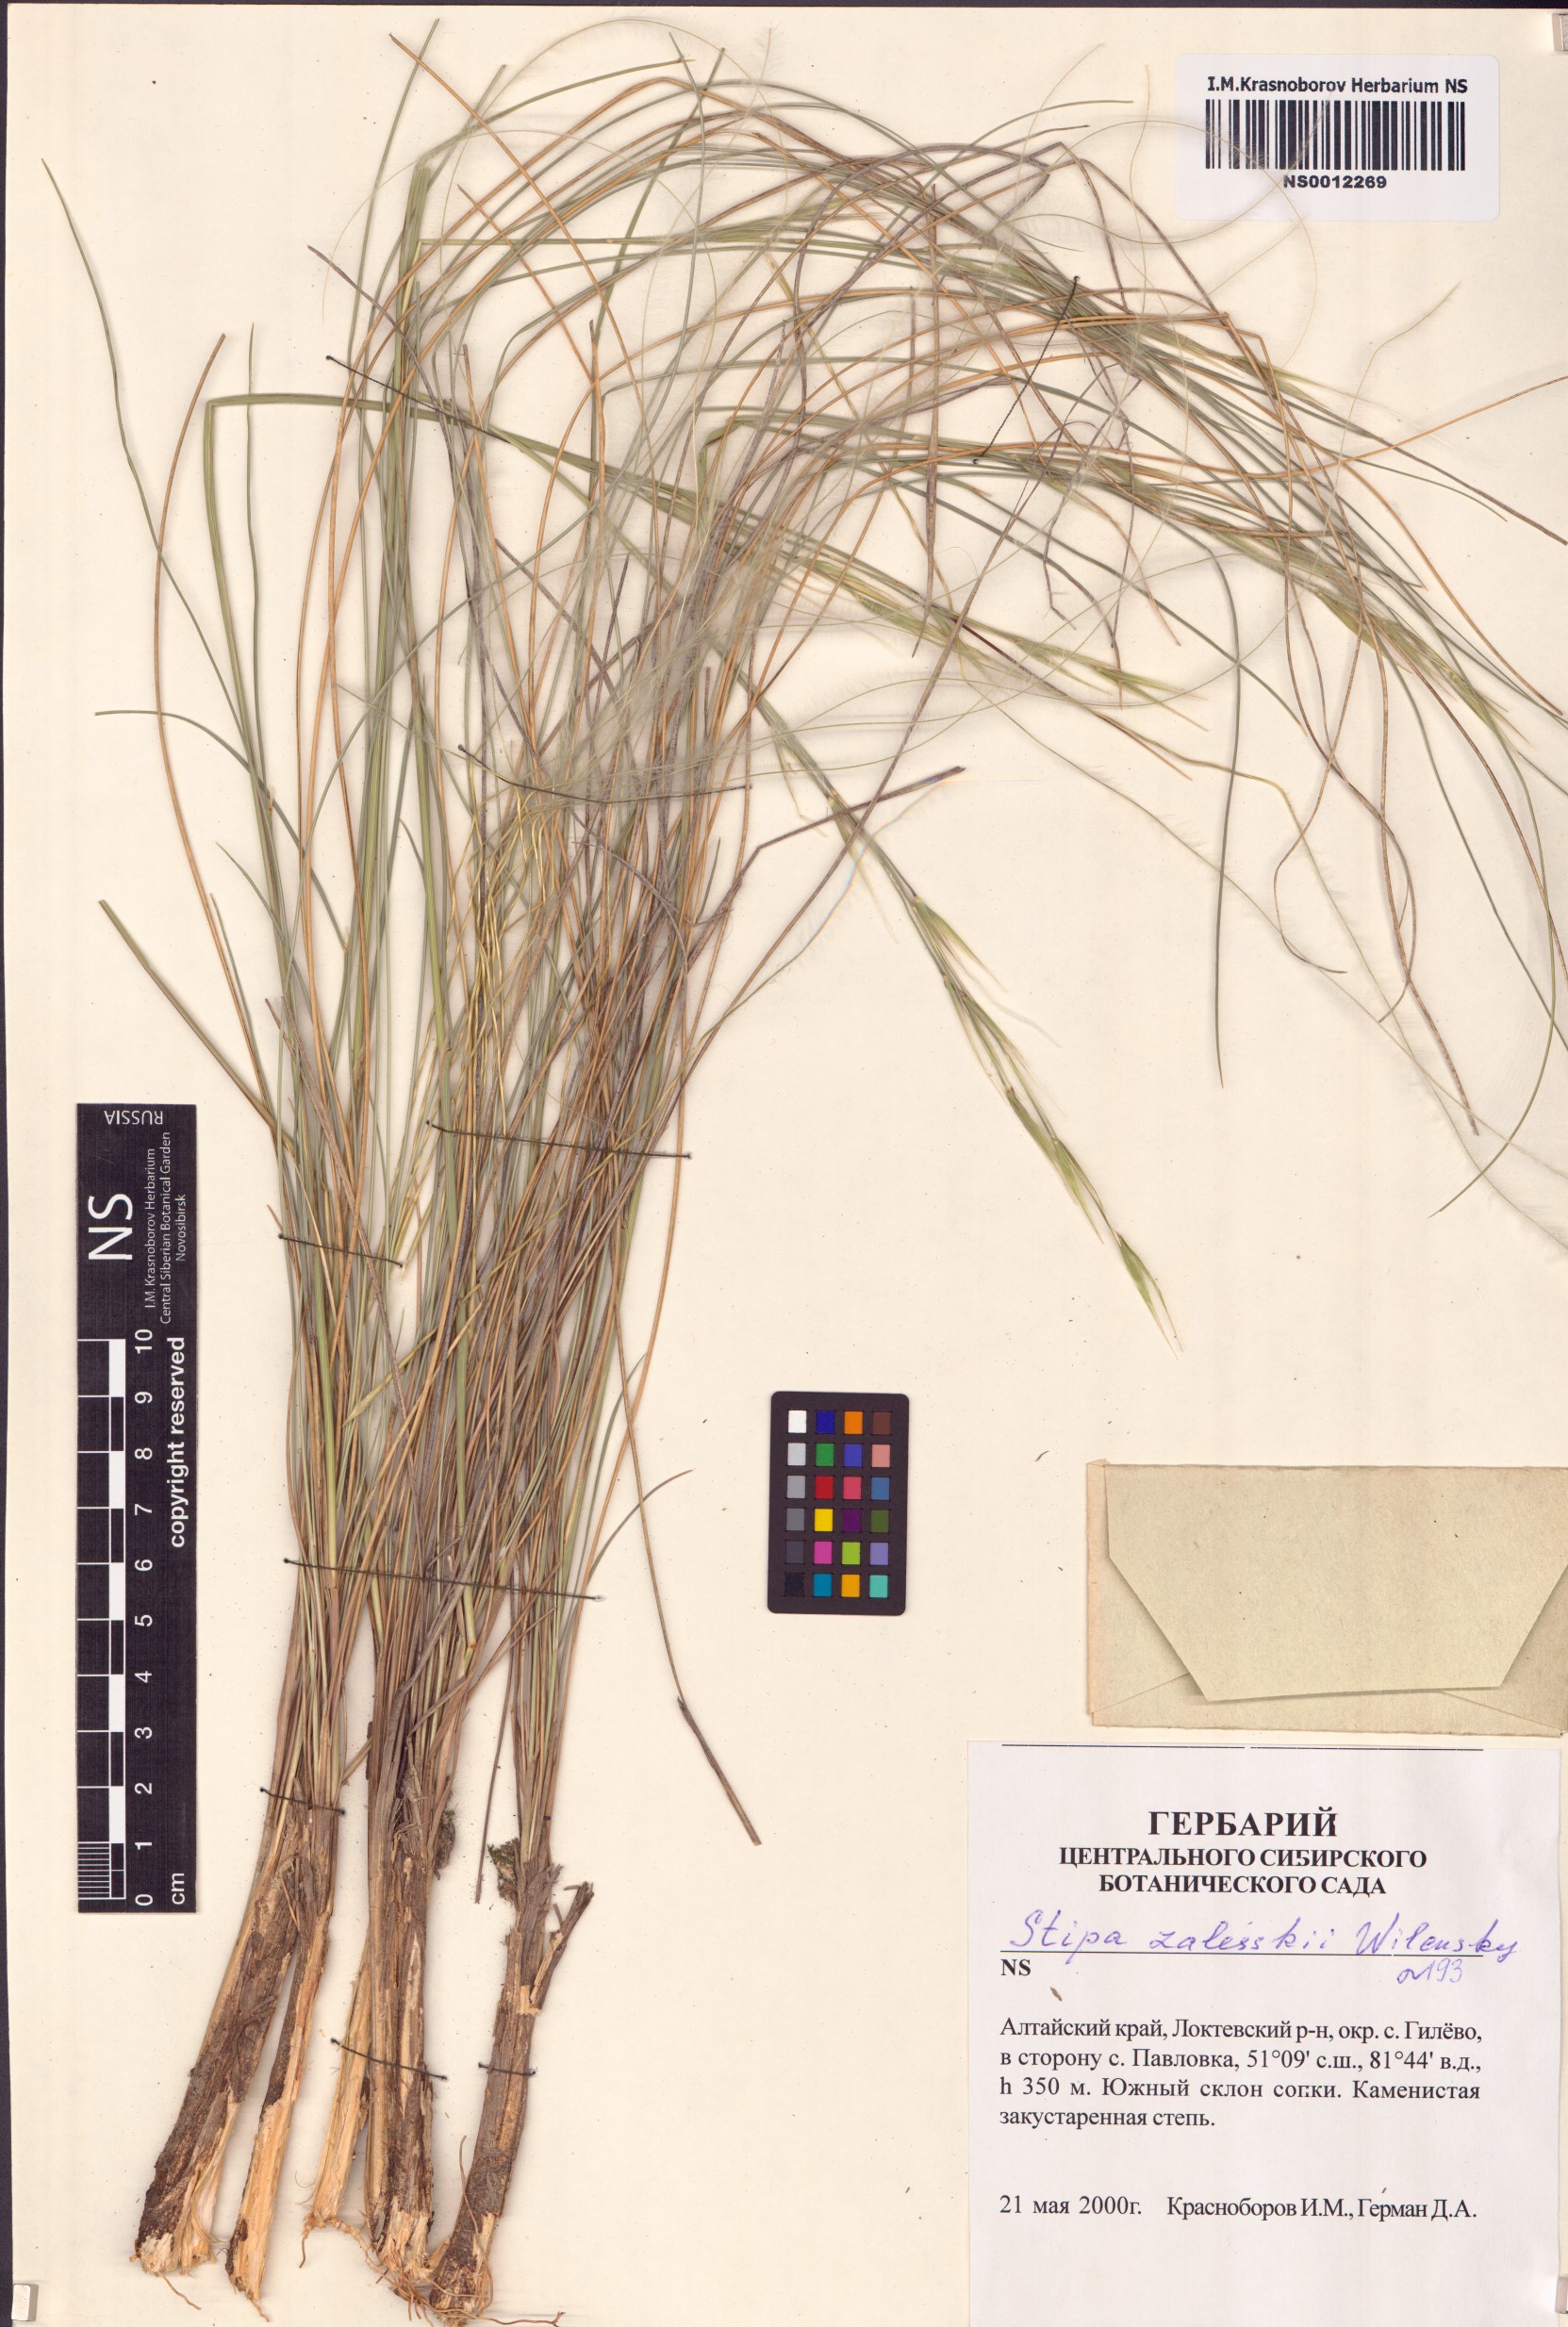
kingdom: Plantae
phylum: Tracheophyta
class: Liliopsida
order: Poales
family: Poaceae
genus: Stipa
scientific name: Stipa zalesskii
